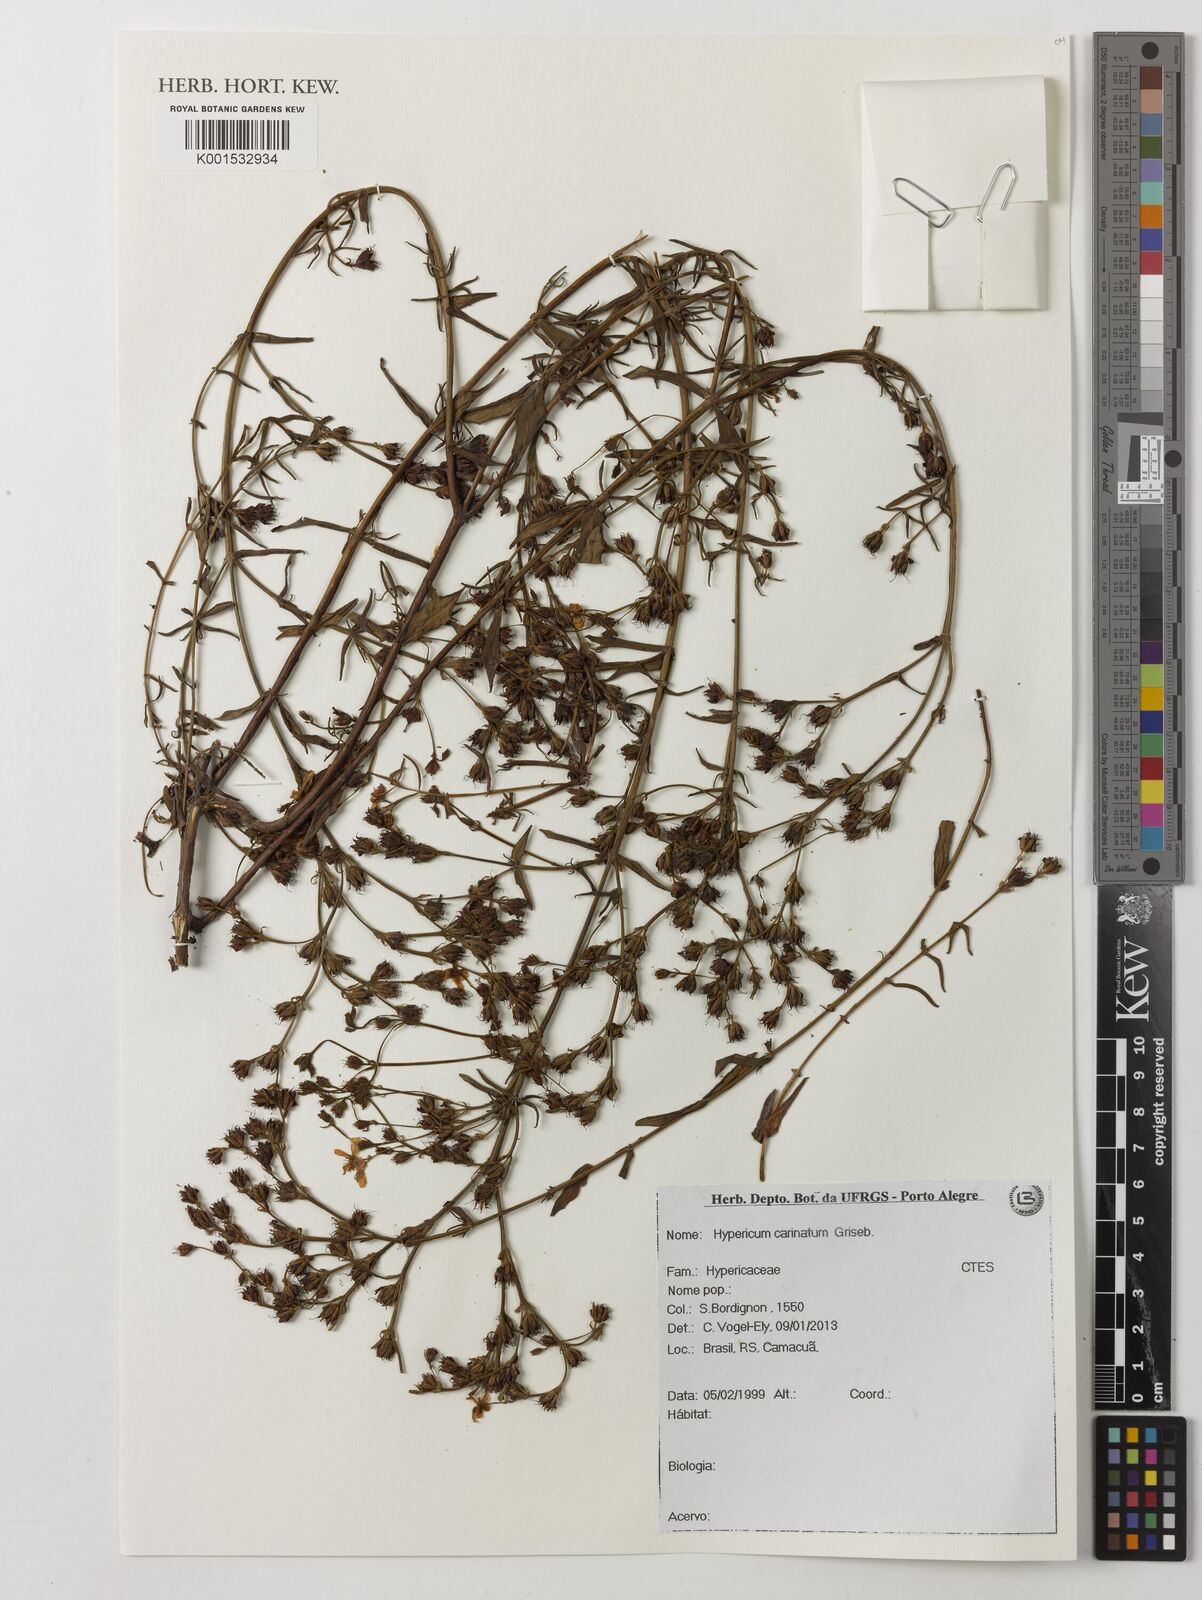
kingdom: Plantae
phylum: Tracheophyta
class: Magnoliopsida
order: Malpighiales
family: Hypericaceae
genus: Hypericum
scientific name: Hypericum carinatum
